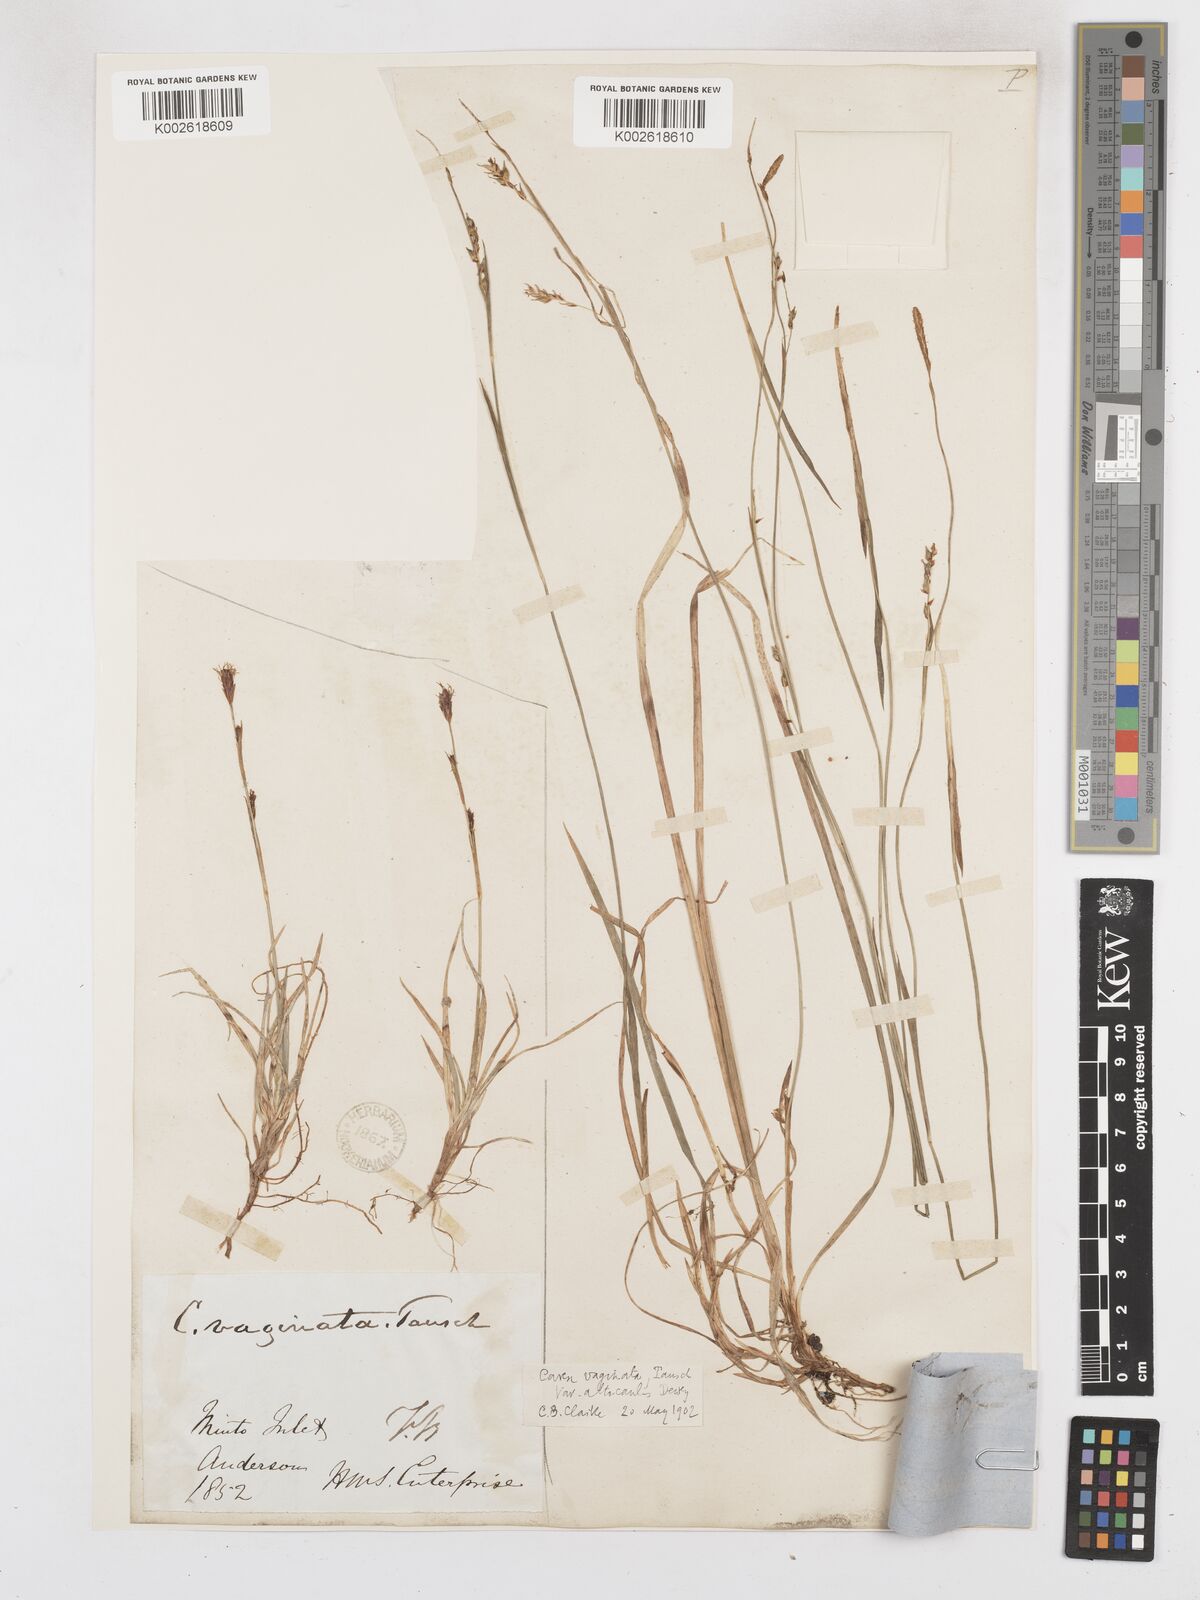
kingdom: Plantae
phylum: Tracheophyta
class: Liliopsida
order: Poales
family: Cyperaceae
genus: Carex
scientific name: Carex vaginata
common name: Sheathed sedge
